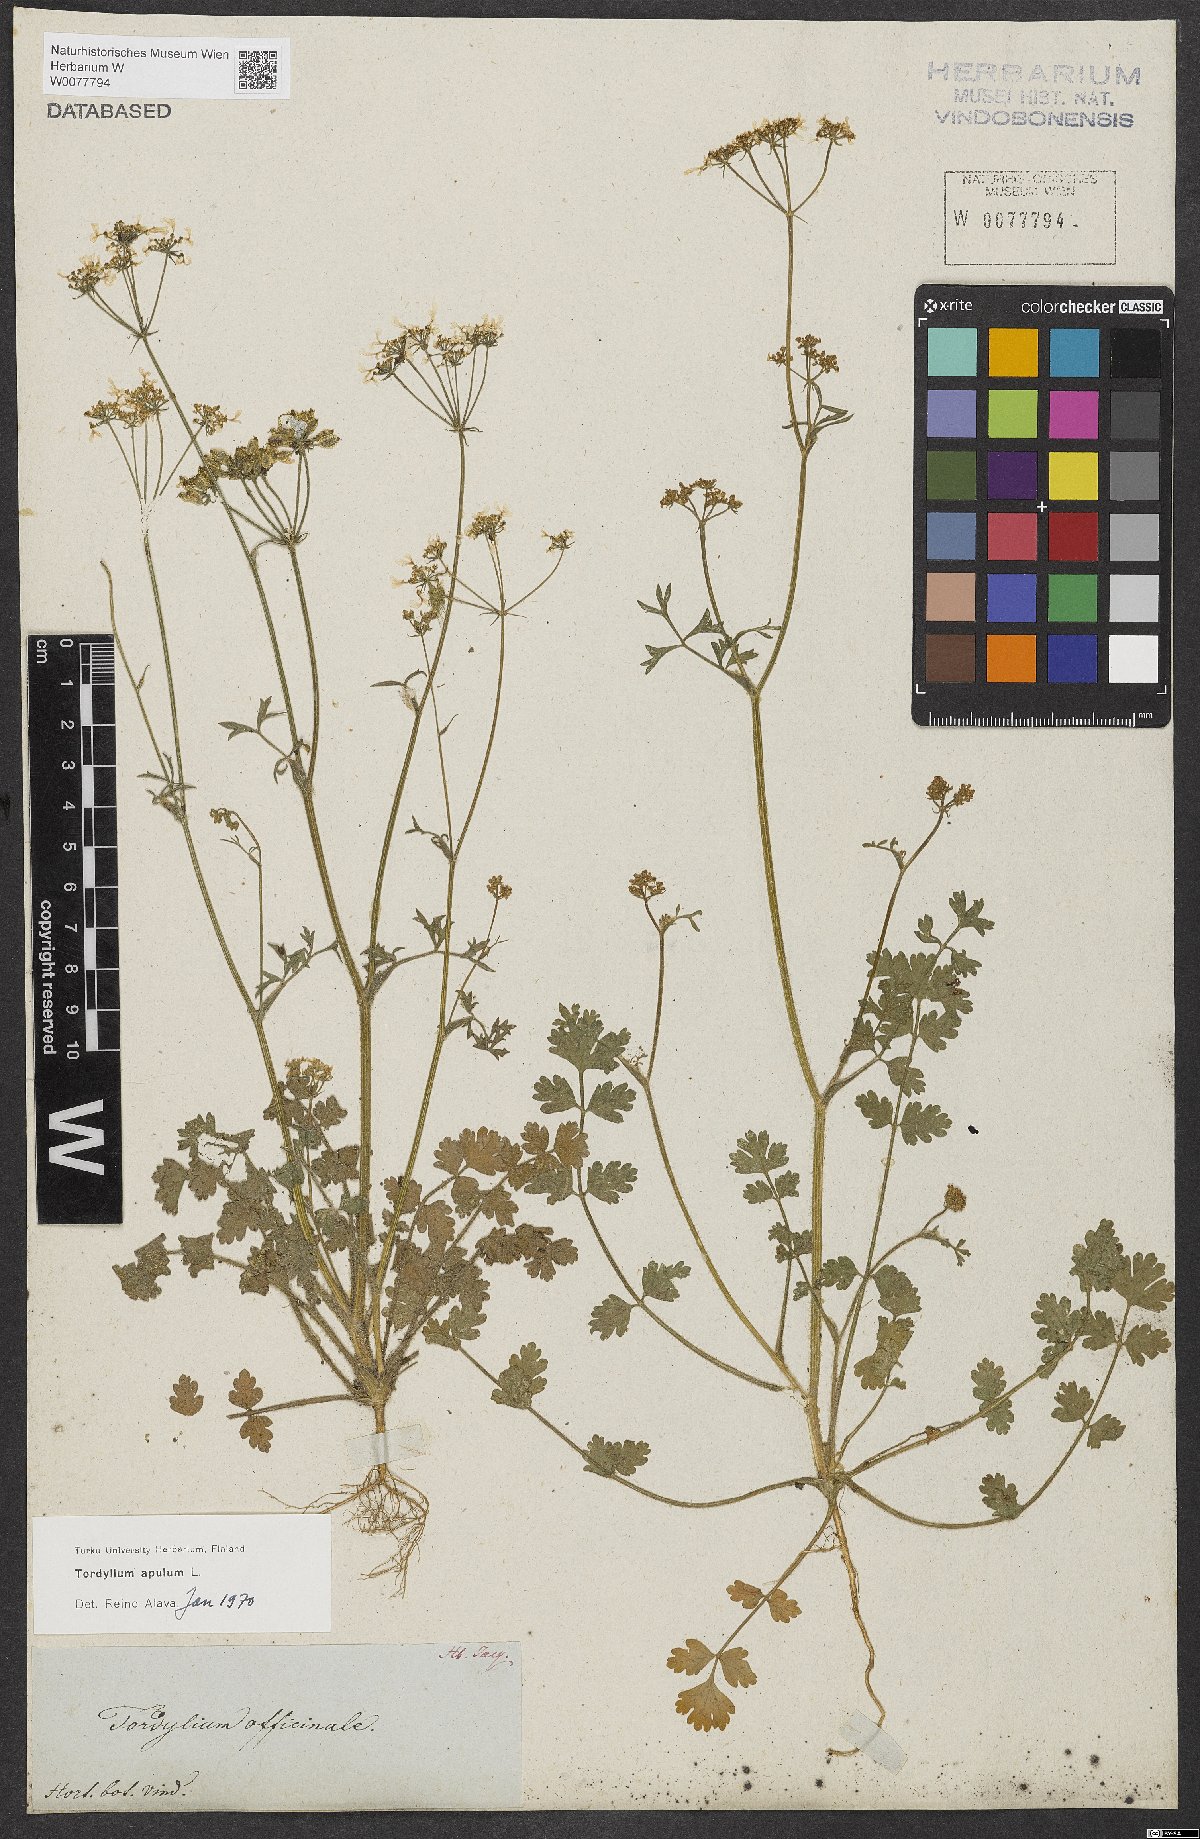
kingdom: Plantae
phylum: Tracheophyta
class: Magnoliopsida
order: Apiales
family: Apiaceae
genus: Tordylium
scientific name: Tordylium apulum
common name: Mediterranean hartwort
